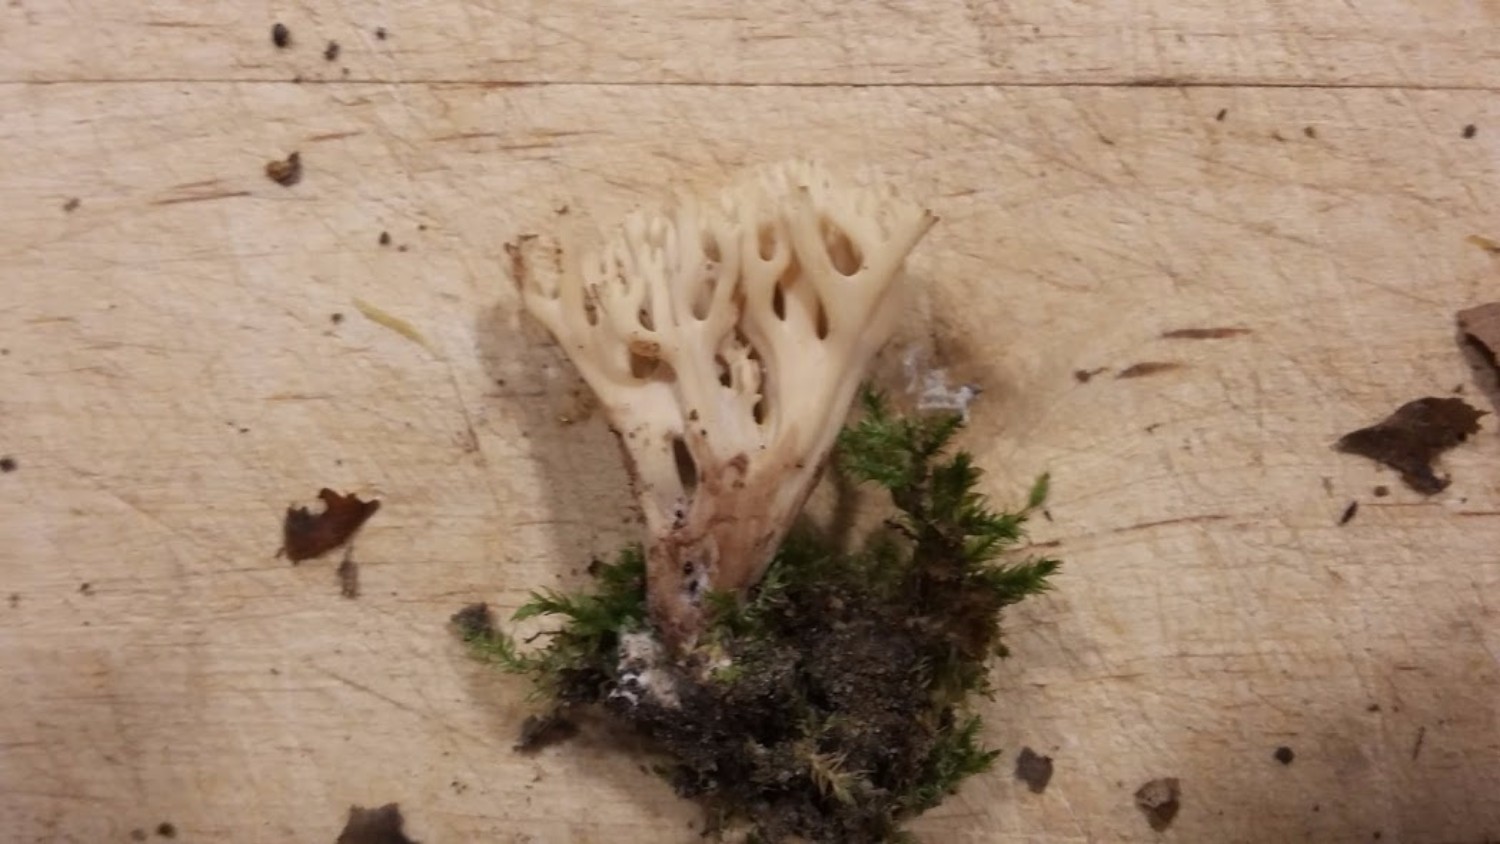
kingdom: Fungi
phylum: Basidiomycota
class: Agaricomycetes
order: Gomphales
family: Gomphaceae
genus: Ramaria
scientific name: Ramaria stricta
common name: rank koralsvamp
